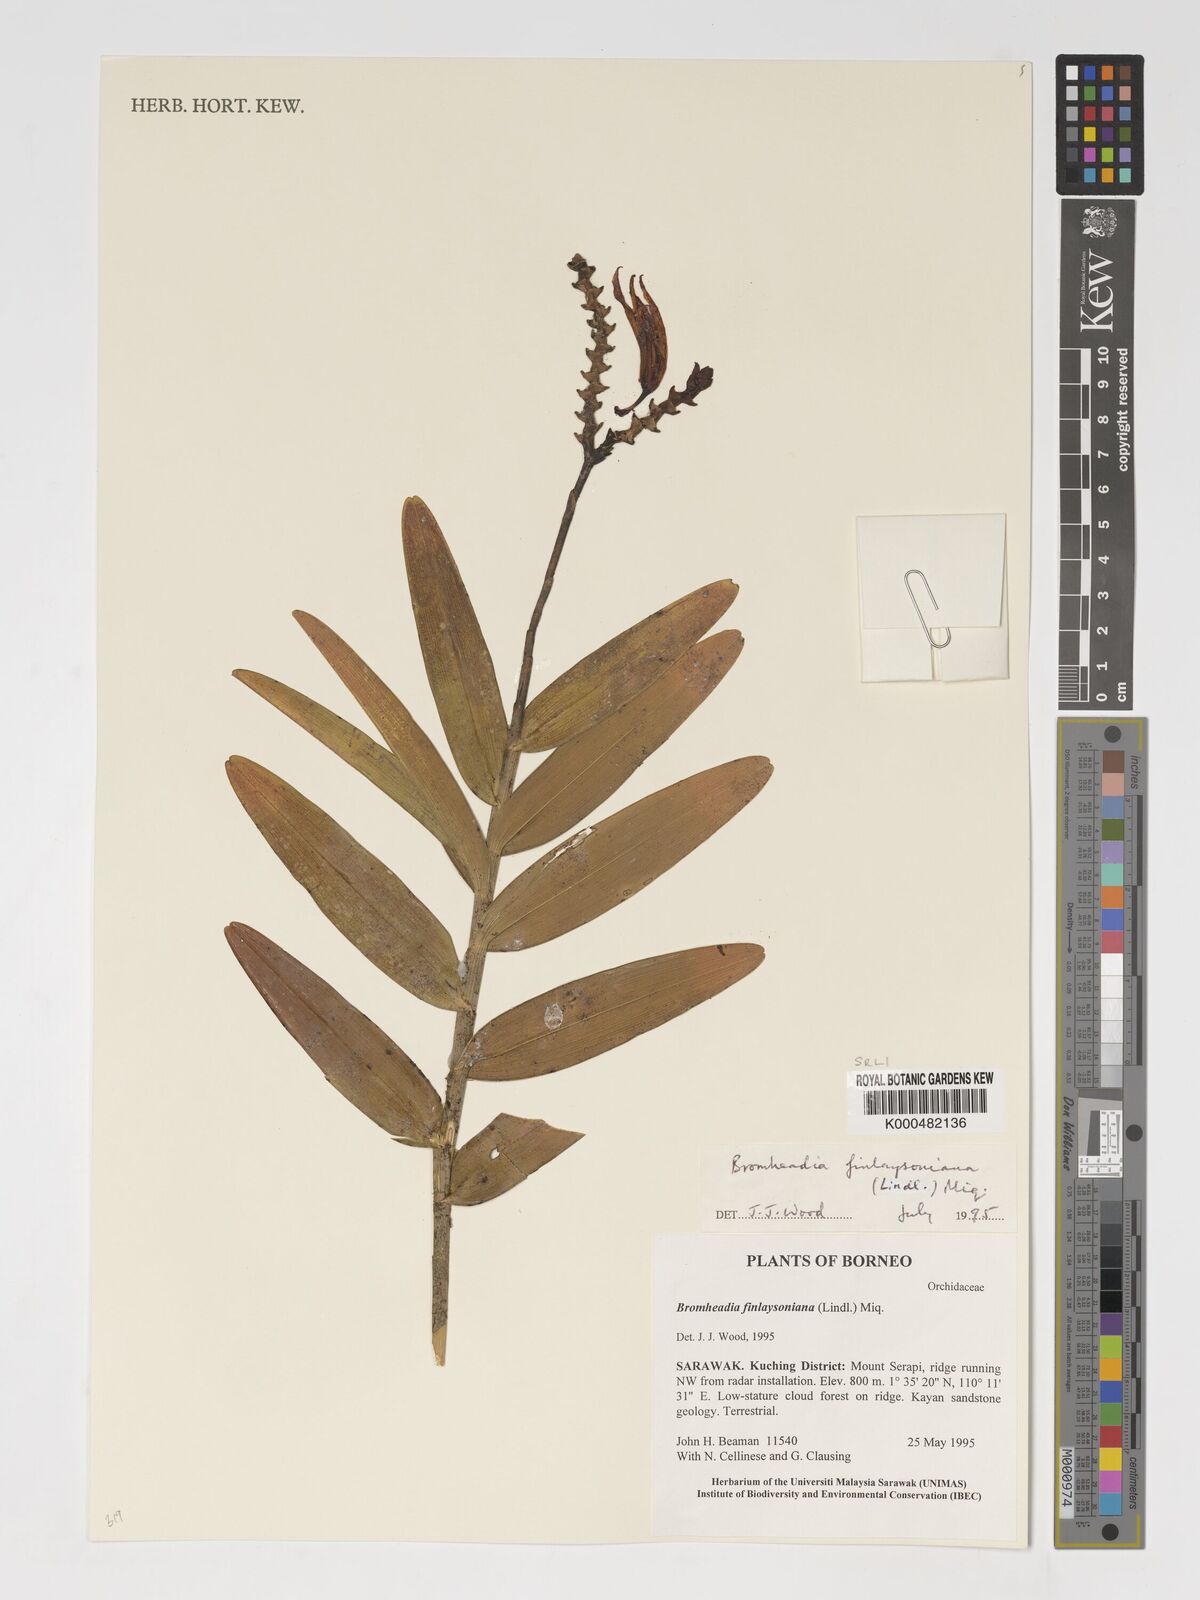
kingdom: Plantae
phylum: Tracheophyta
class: Liliopsida
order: Asparagales
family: Orchidaceae
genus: Bromheadia
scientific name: Bromheadia finlaysoniana
